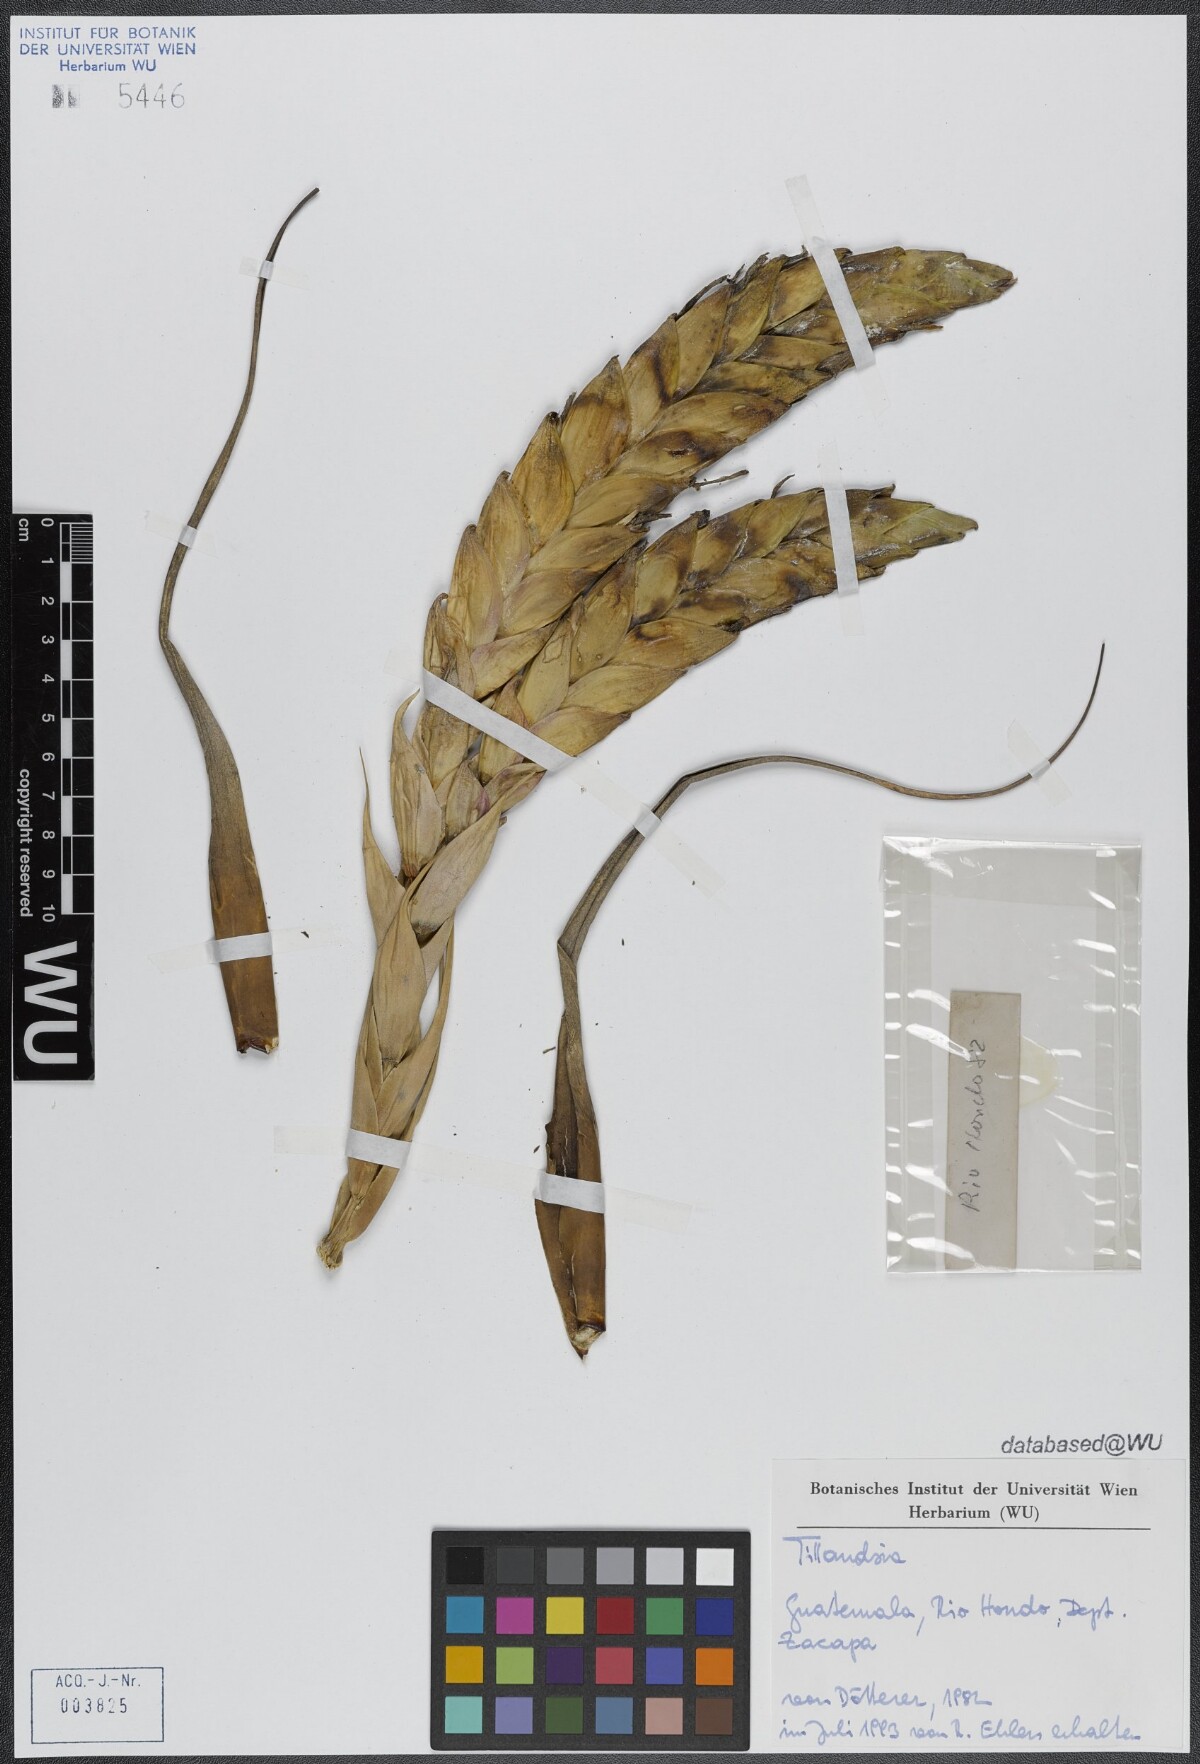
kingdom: Plantae
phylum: Tracheophyta
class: Liliopsida
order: Poales
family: Bromeliaceae
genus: Tillandsia
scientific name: Tillandsia fasciculata
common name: Giant airplant
